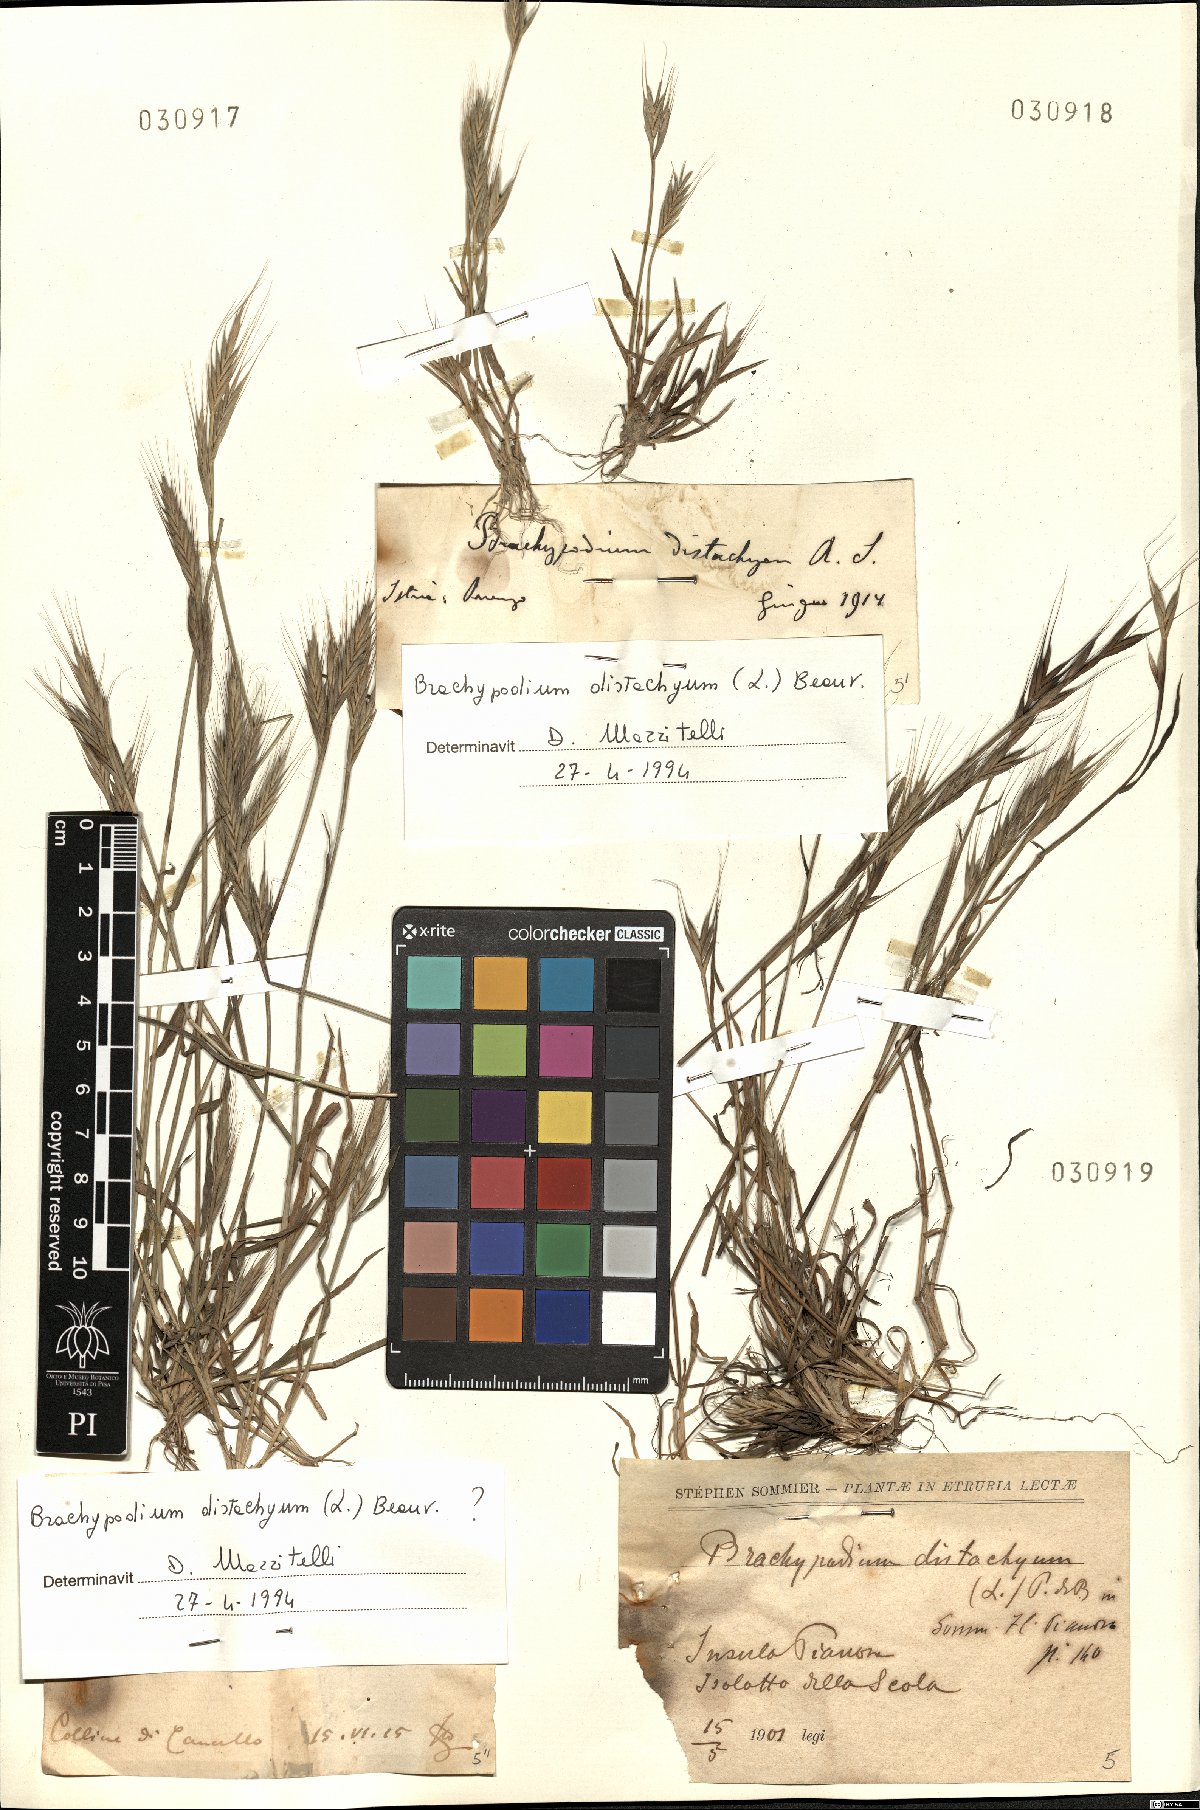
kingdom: Plantae
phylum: Tracheophyta
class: Liliopsida
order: Poales
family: Poaceae
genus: Brachypodium
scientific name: Brachypodium distachyon
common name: Stiff brome
